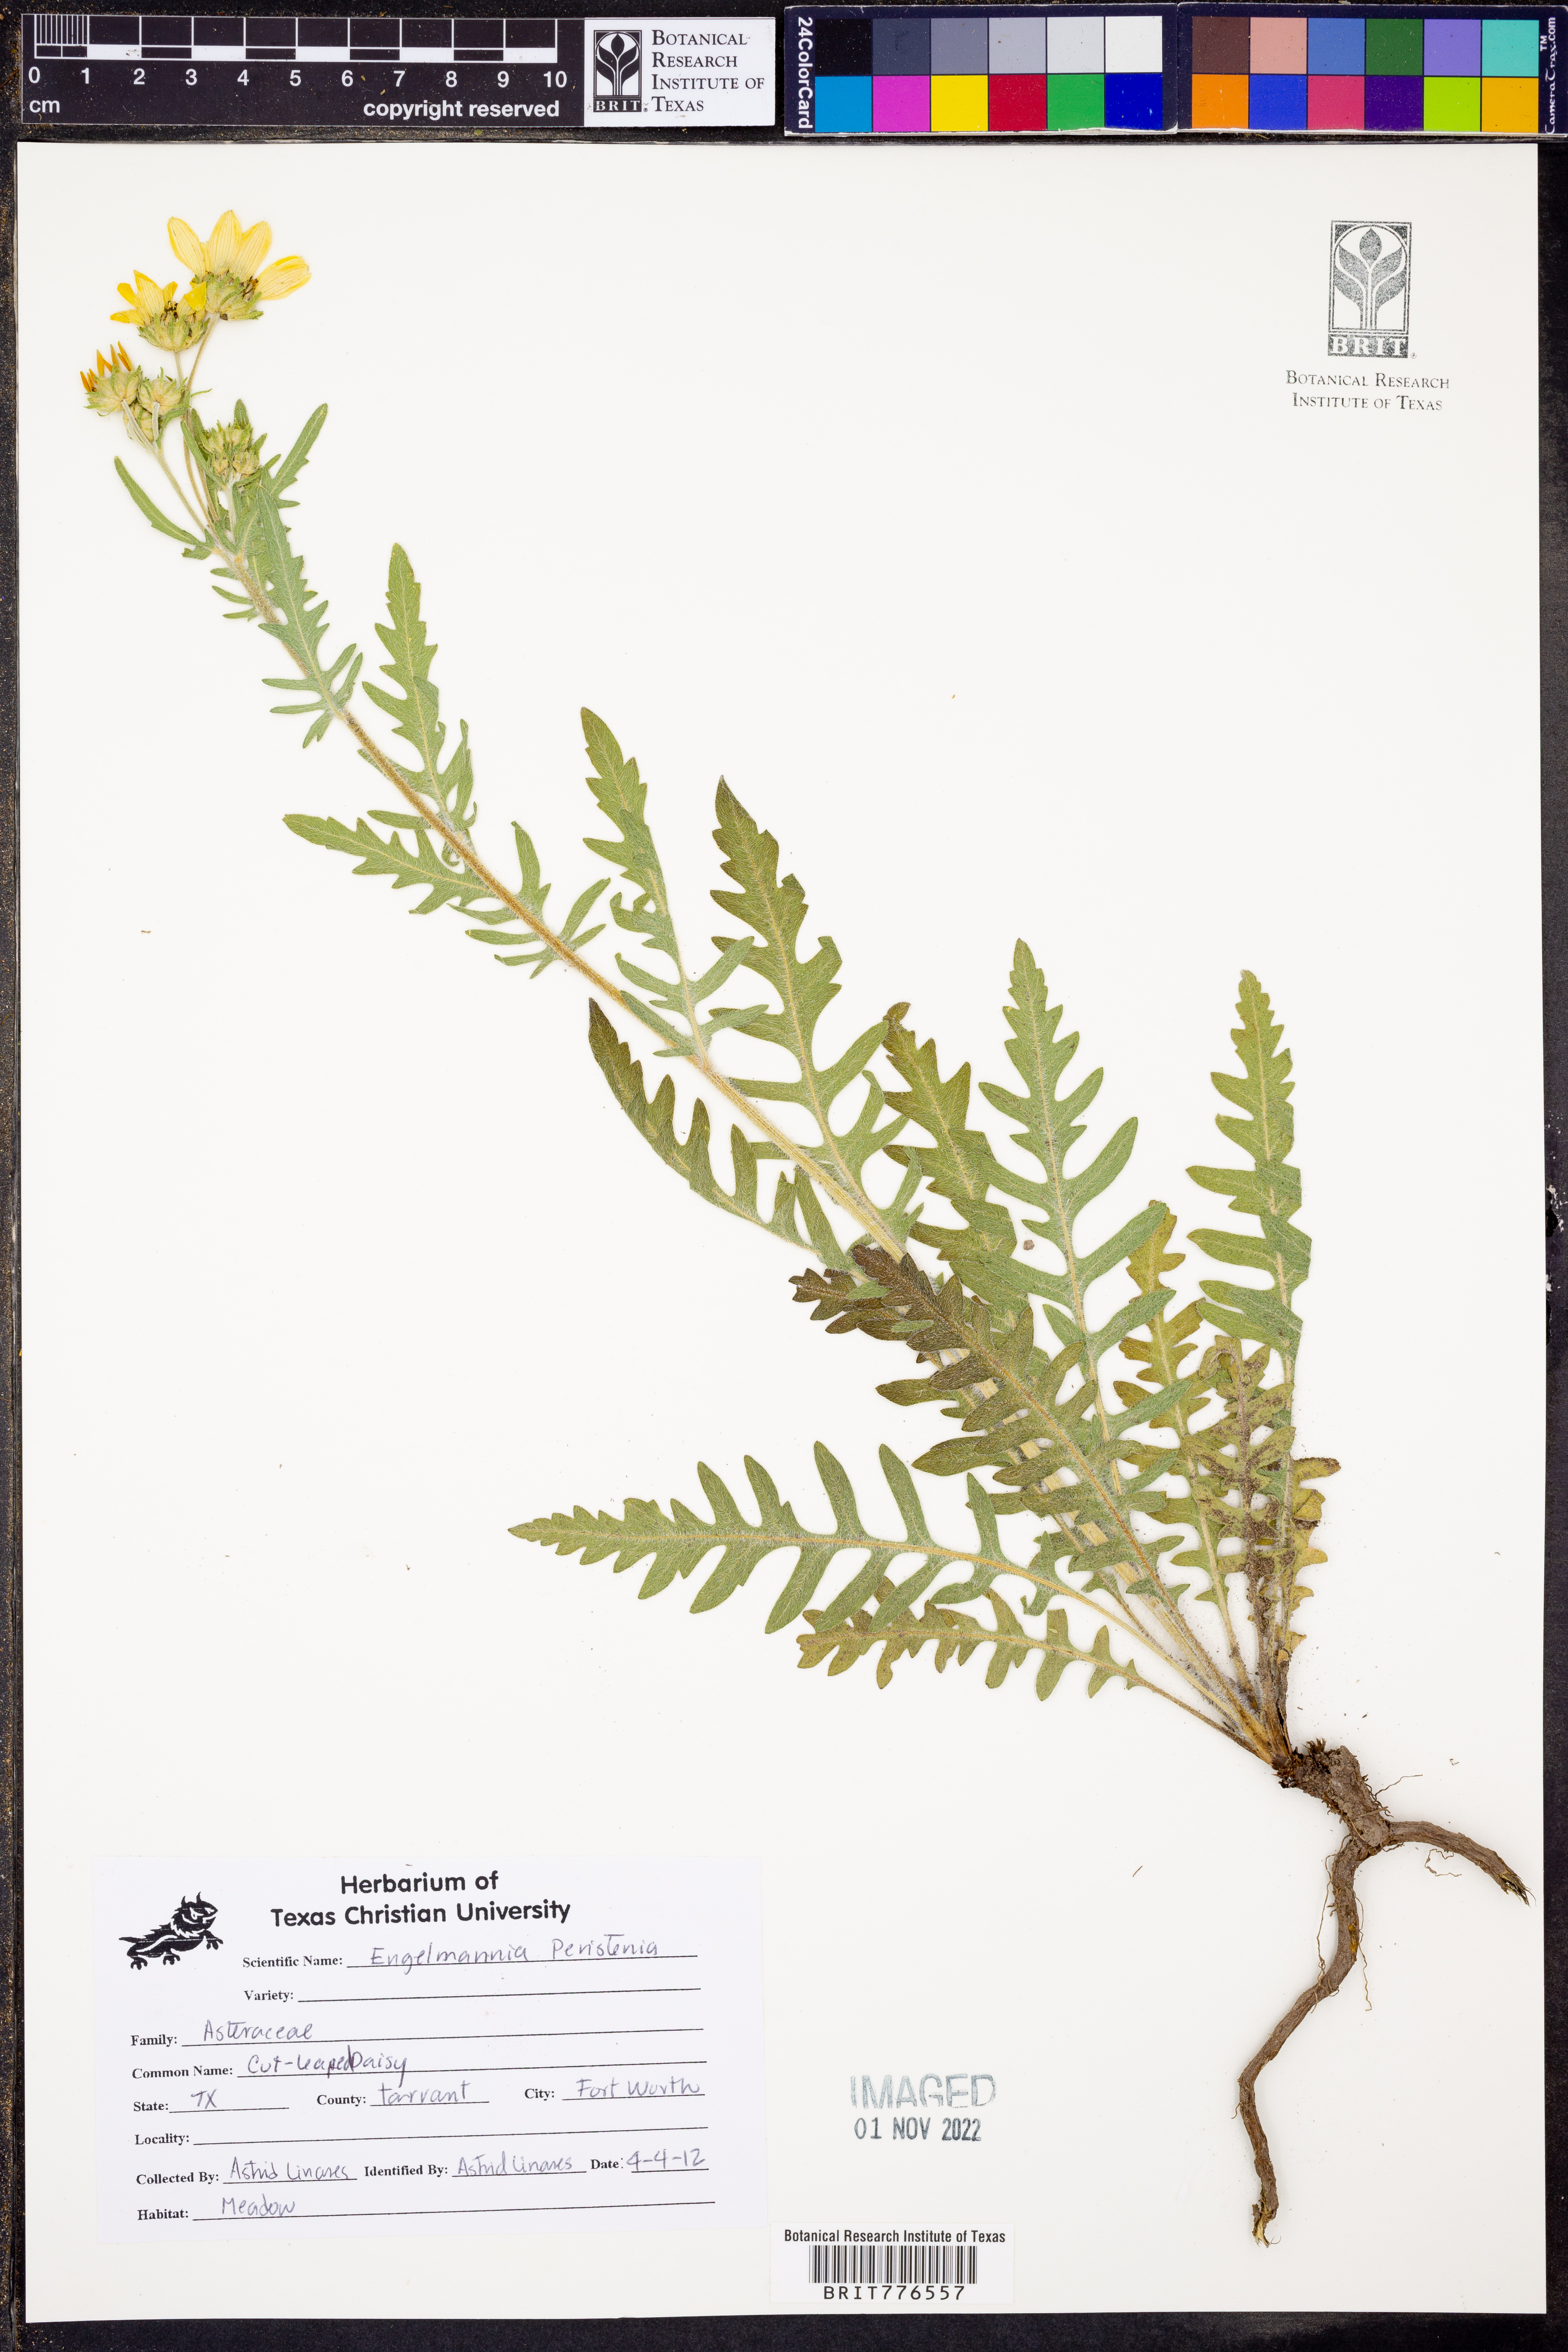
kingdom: Plantae
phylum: Tracheophyta
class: Magnoliopsida
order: Asterales
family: Asteraceae
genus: Engelmannia
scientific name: Engelmannia peristenia
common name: Engelmann's daisy
